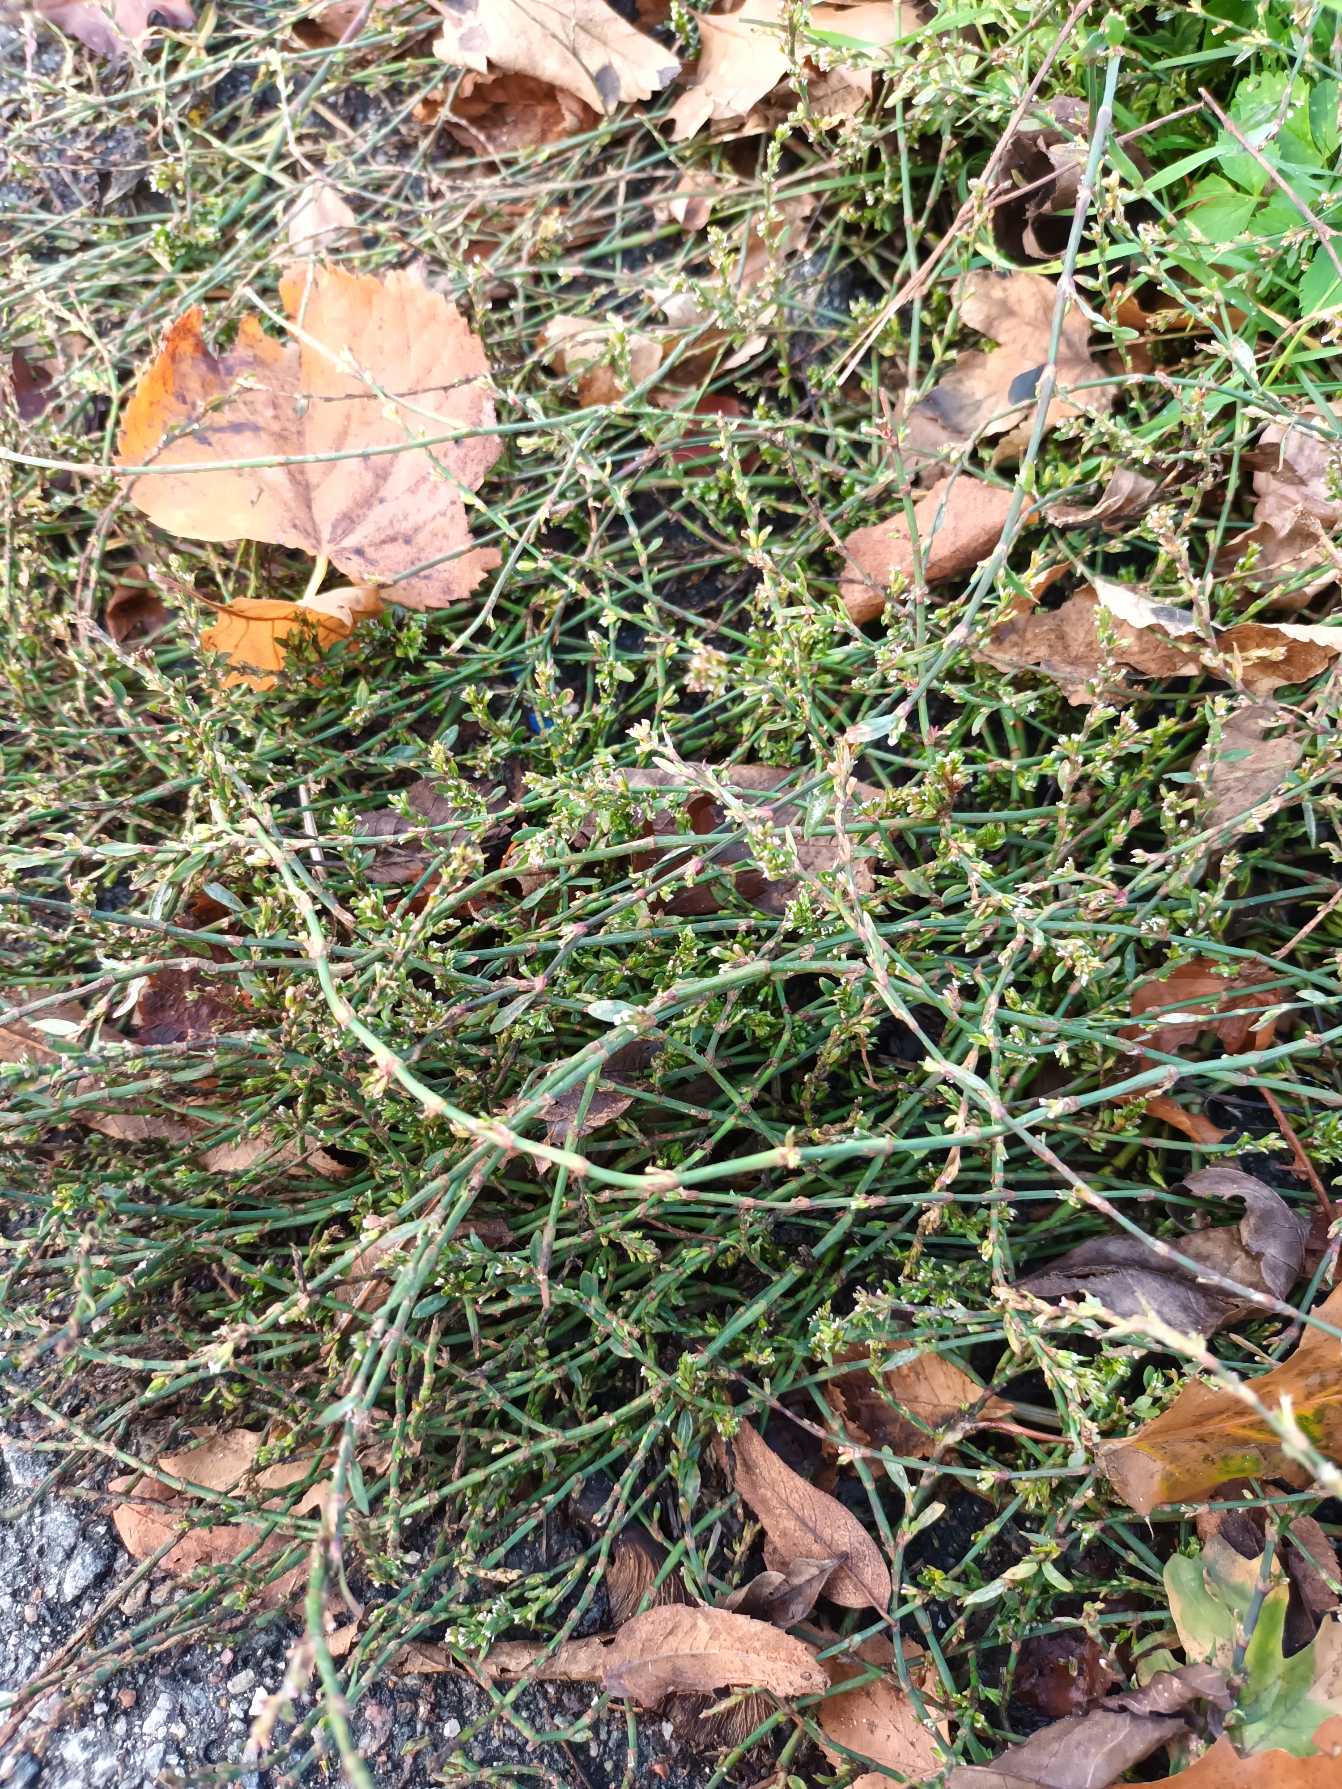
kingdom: Plantae
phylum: Tracheophyta
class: Magnoliopsida
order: Caryophyllales
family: Polygonaceae
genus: Polygonum
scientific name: Polygonum arenastrum
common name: Liggende vej-pileurt
